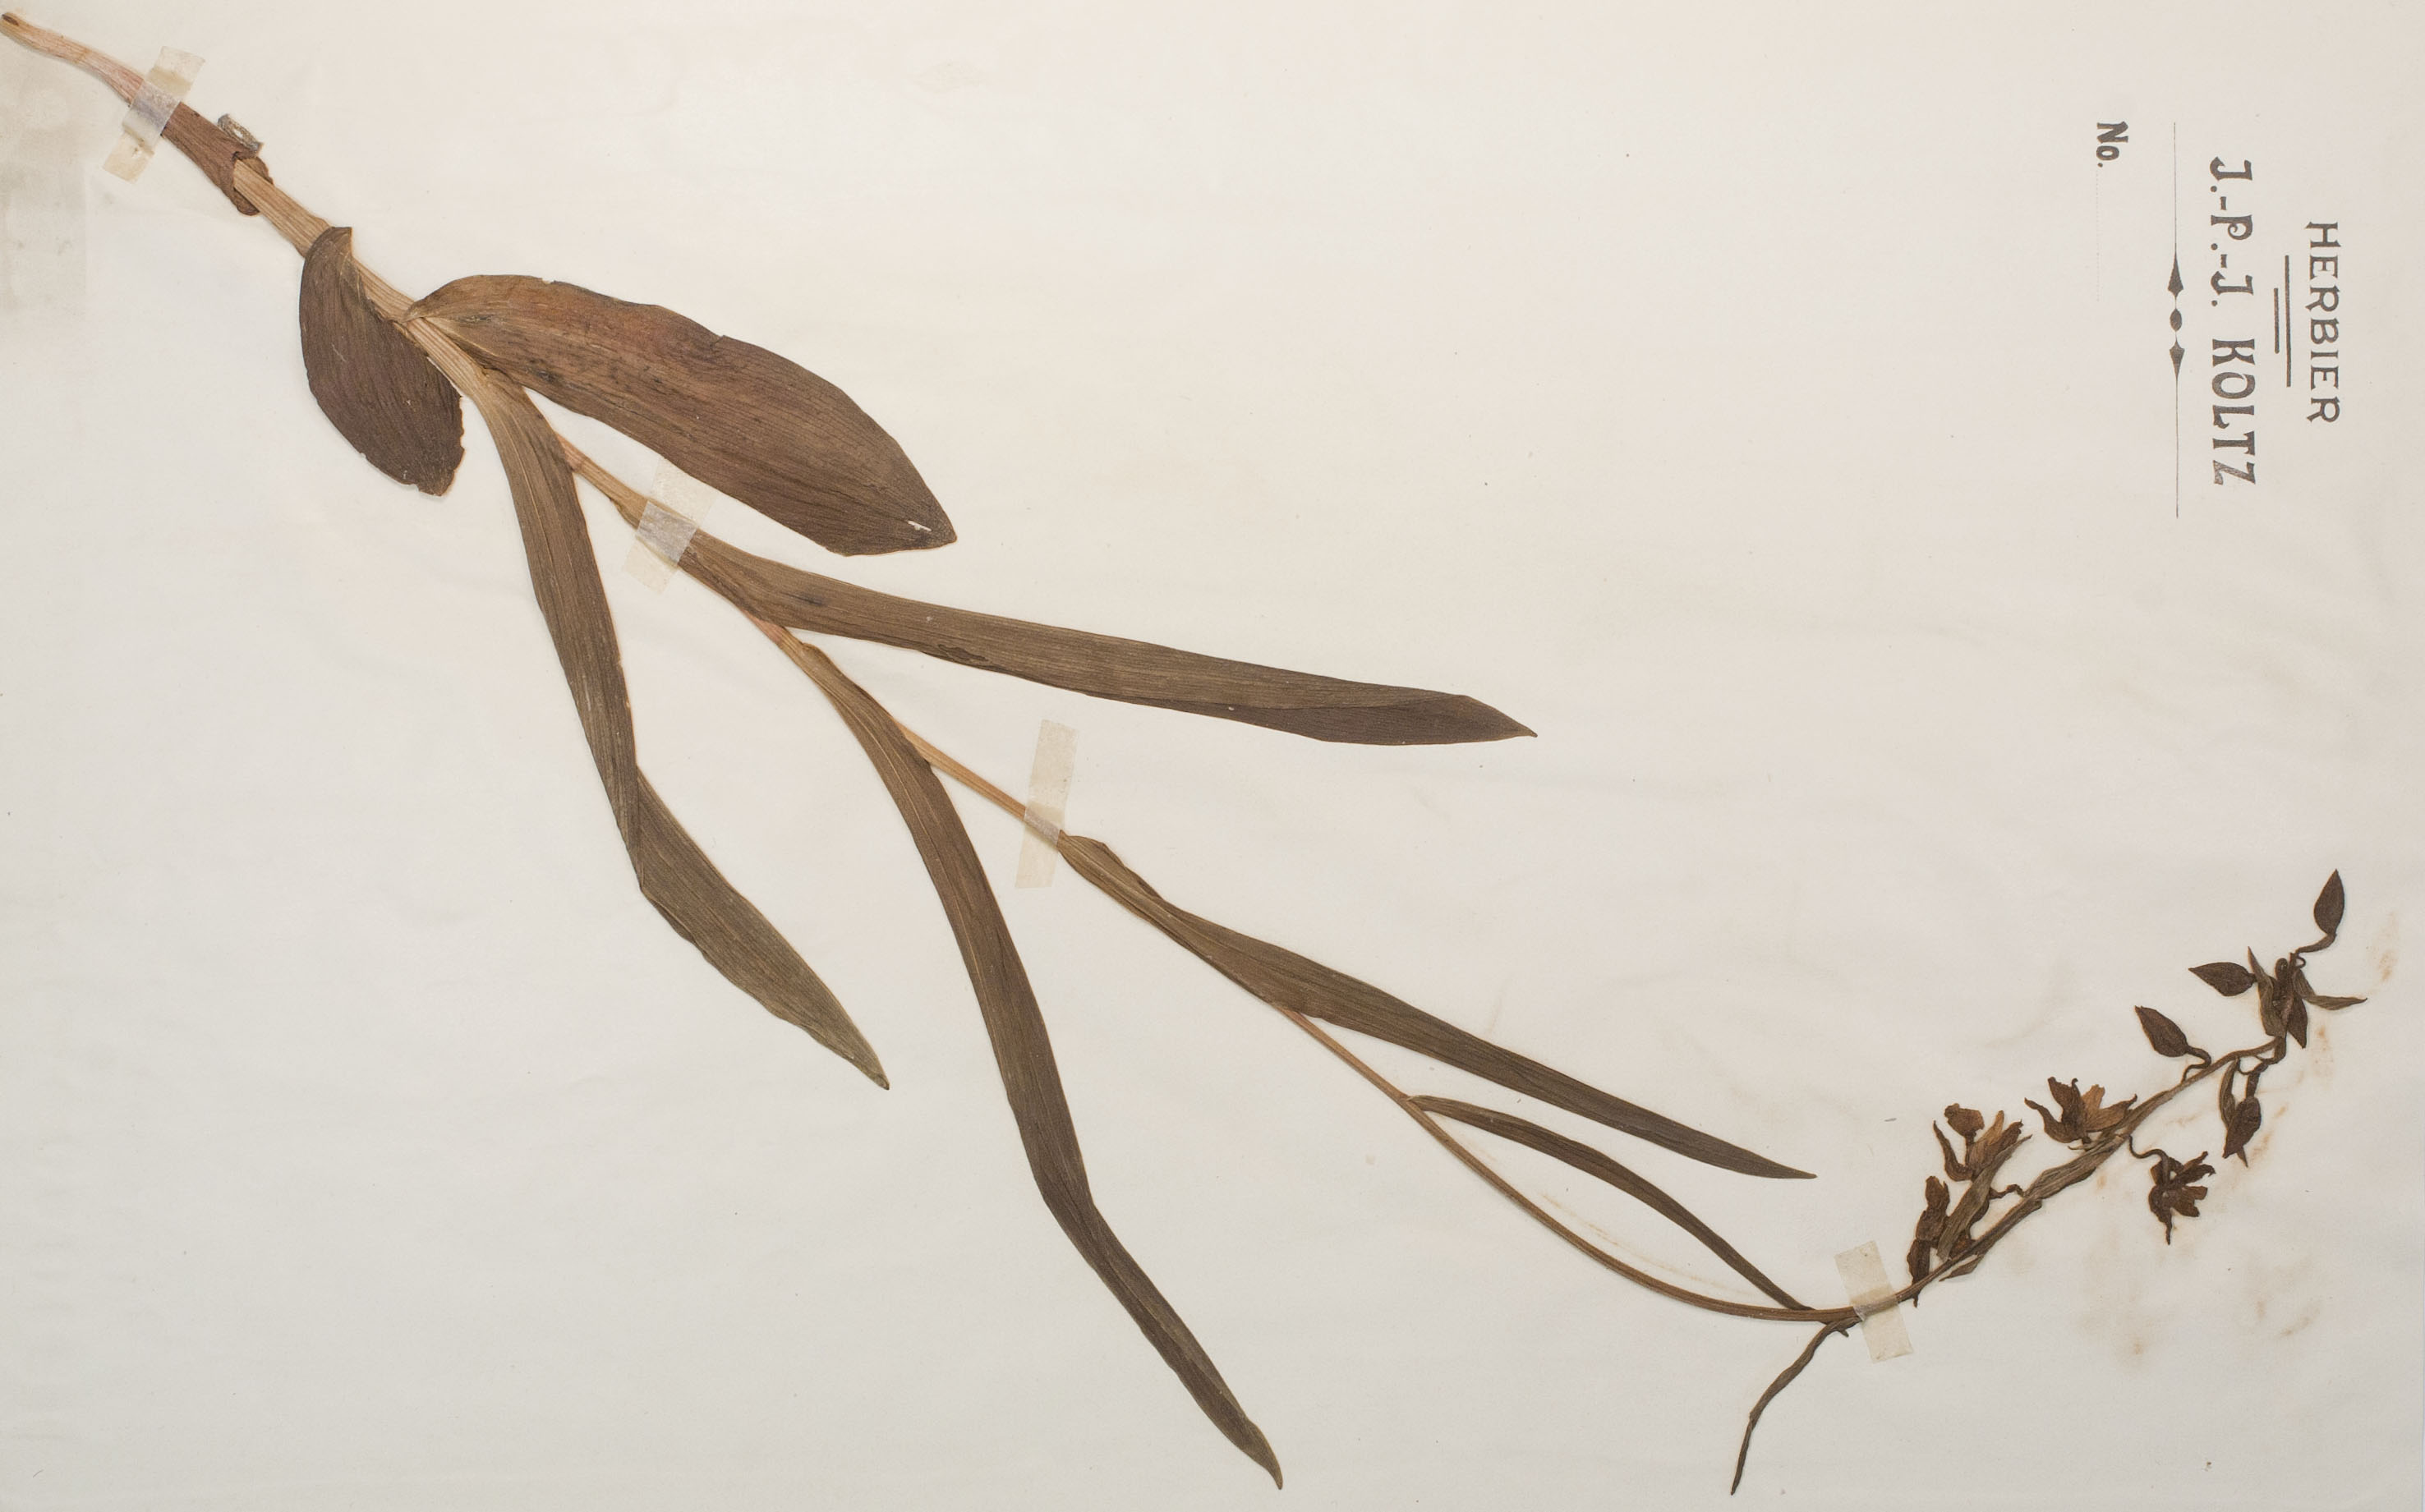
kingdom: Plantae
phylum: Tracheophyta
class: Liliopsida
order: Asparagales
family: Orchidaceae
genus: Epipactis
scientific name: Epipactis palustris
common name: Marsh helleborine
